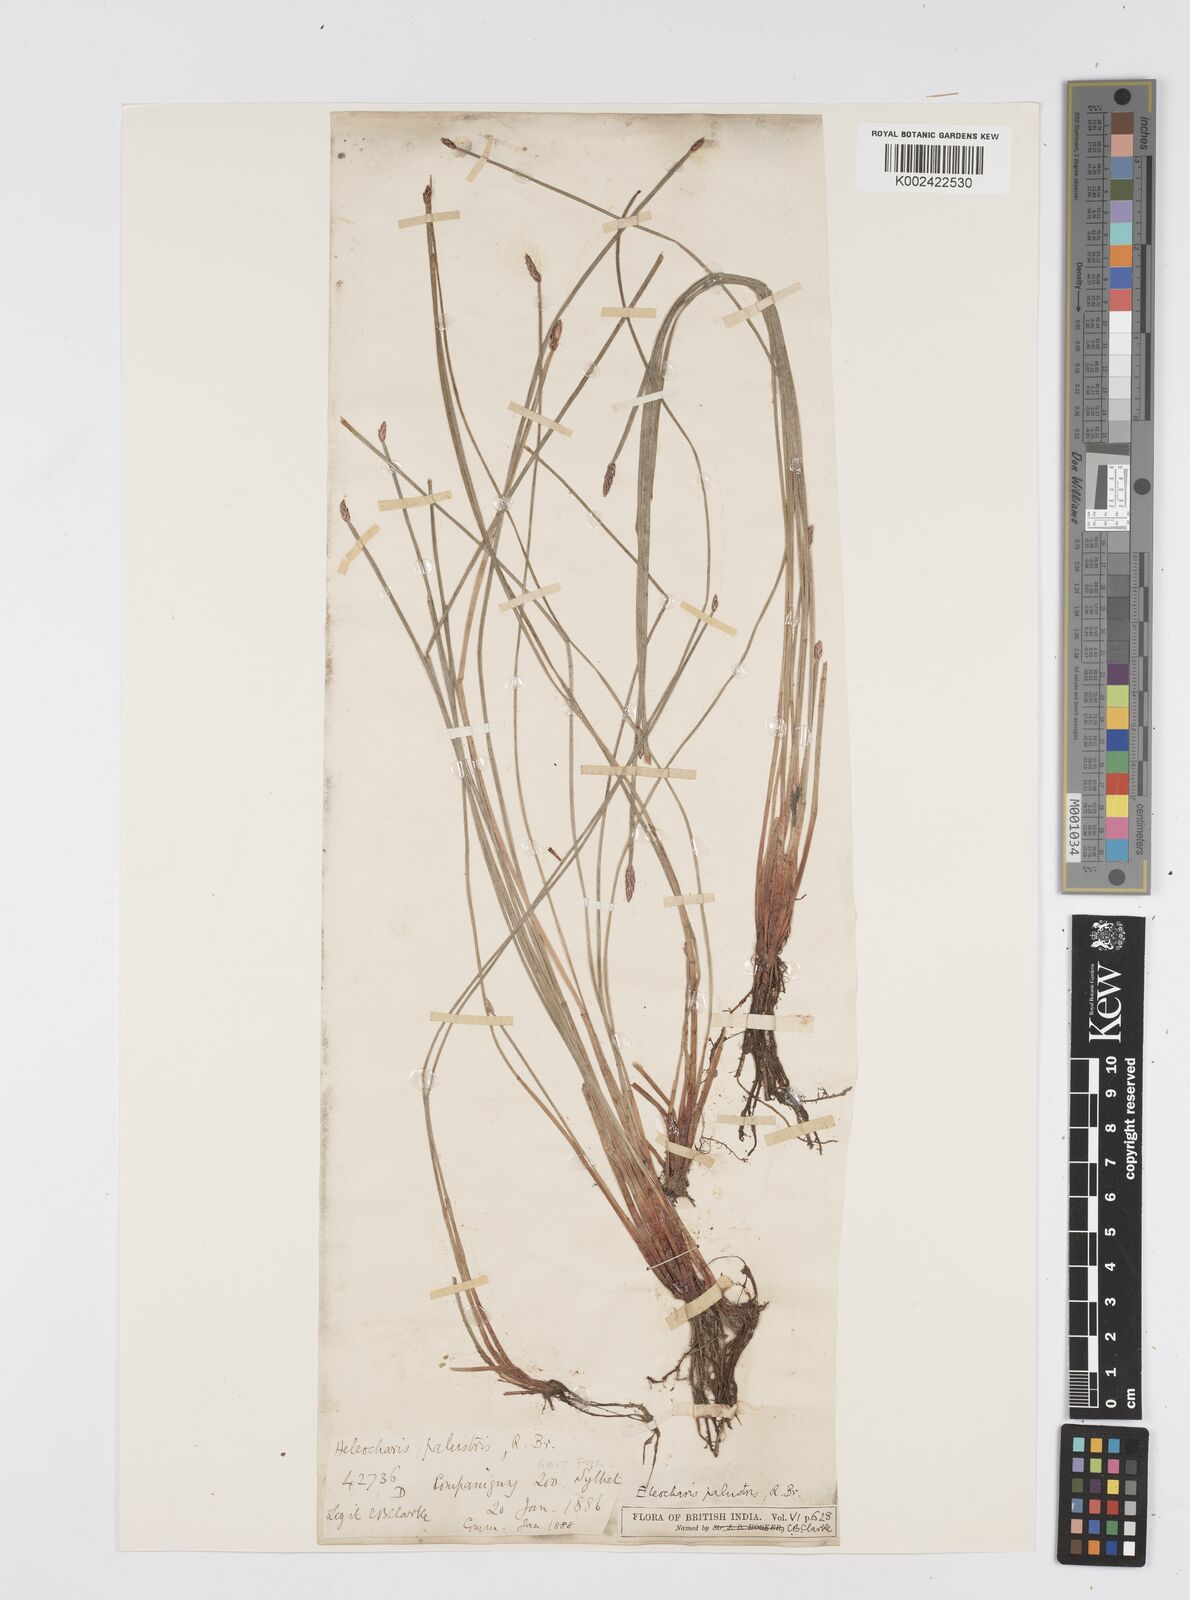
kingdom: Plantae
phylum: Tracheophyta
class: Liliopsida
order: Poales
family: Cyperaceae
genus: Eleocharis
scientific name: Eleocharis palustris
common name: Common spike-rush
